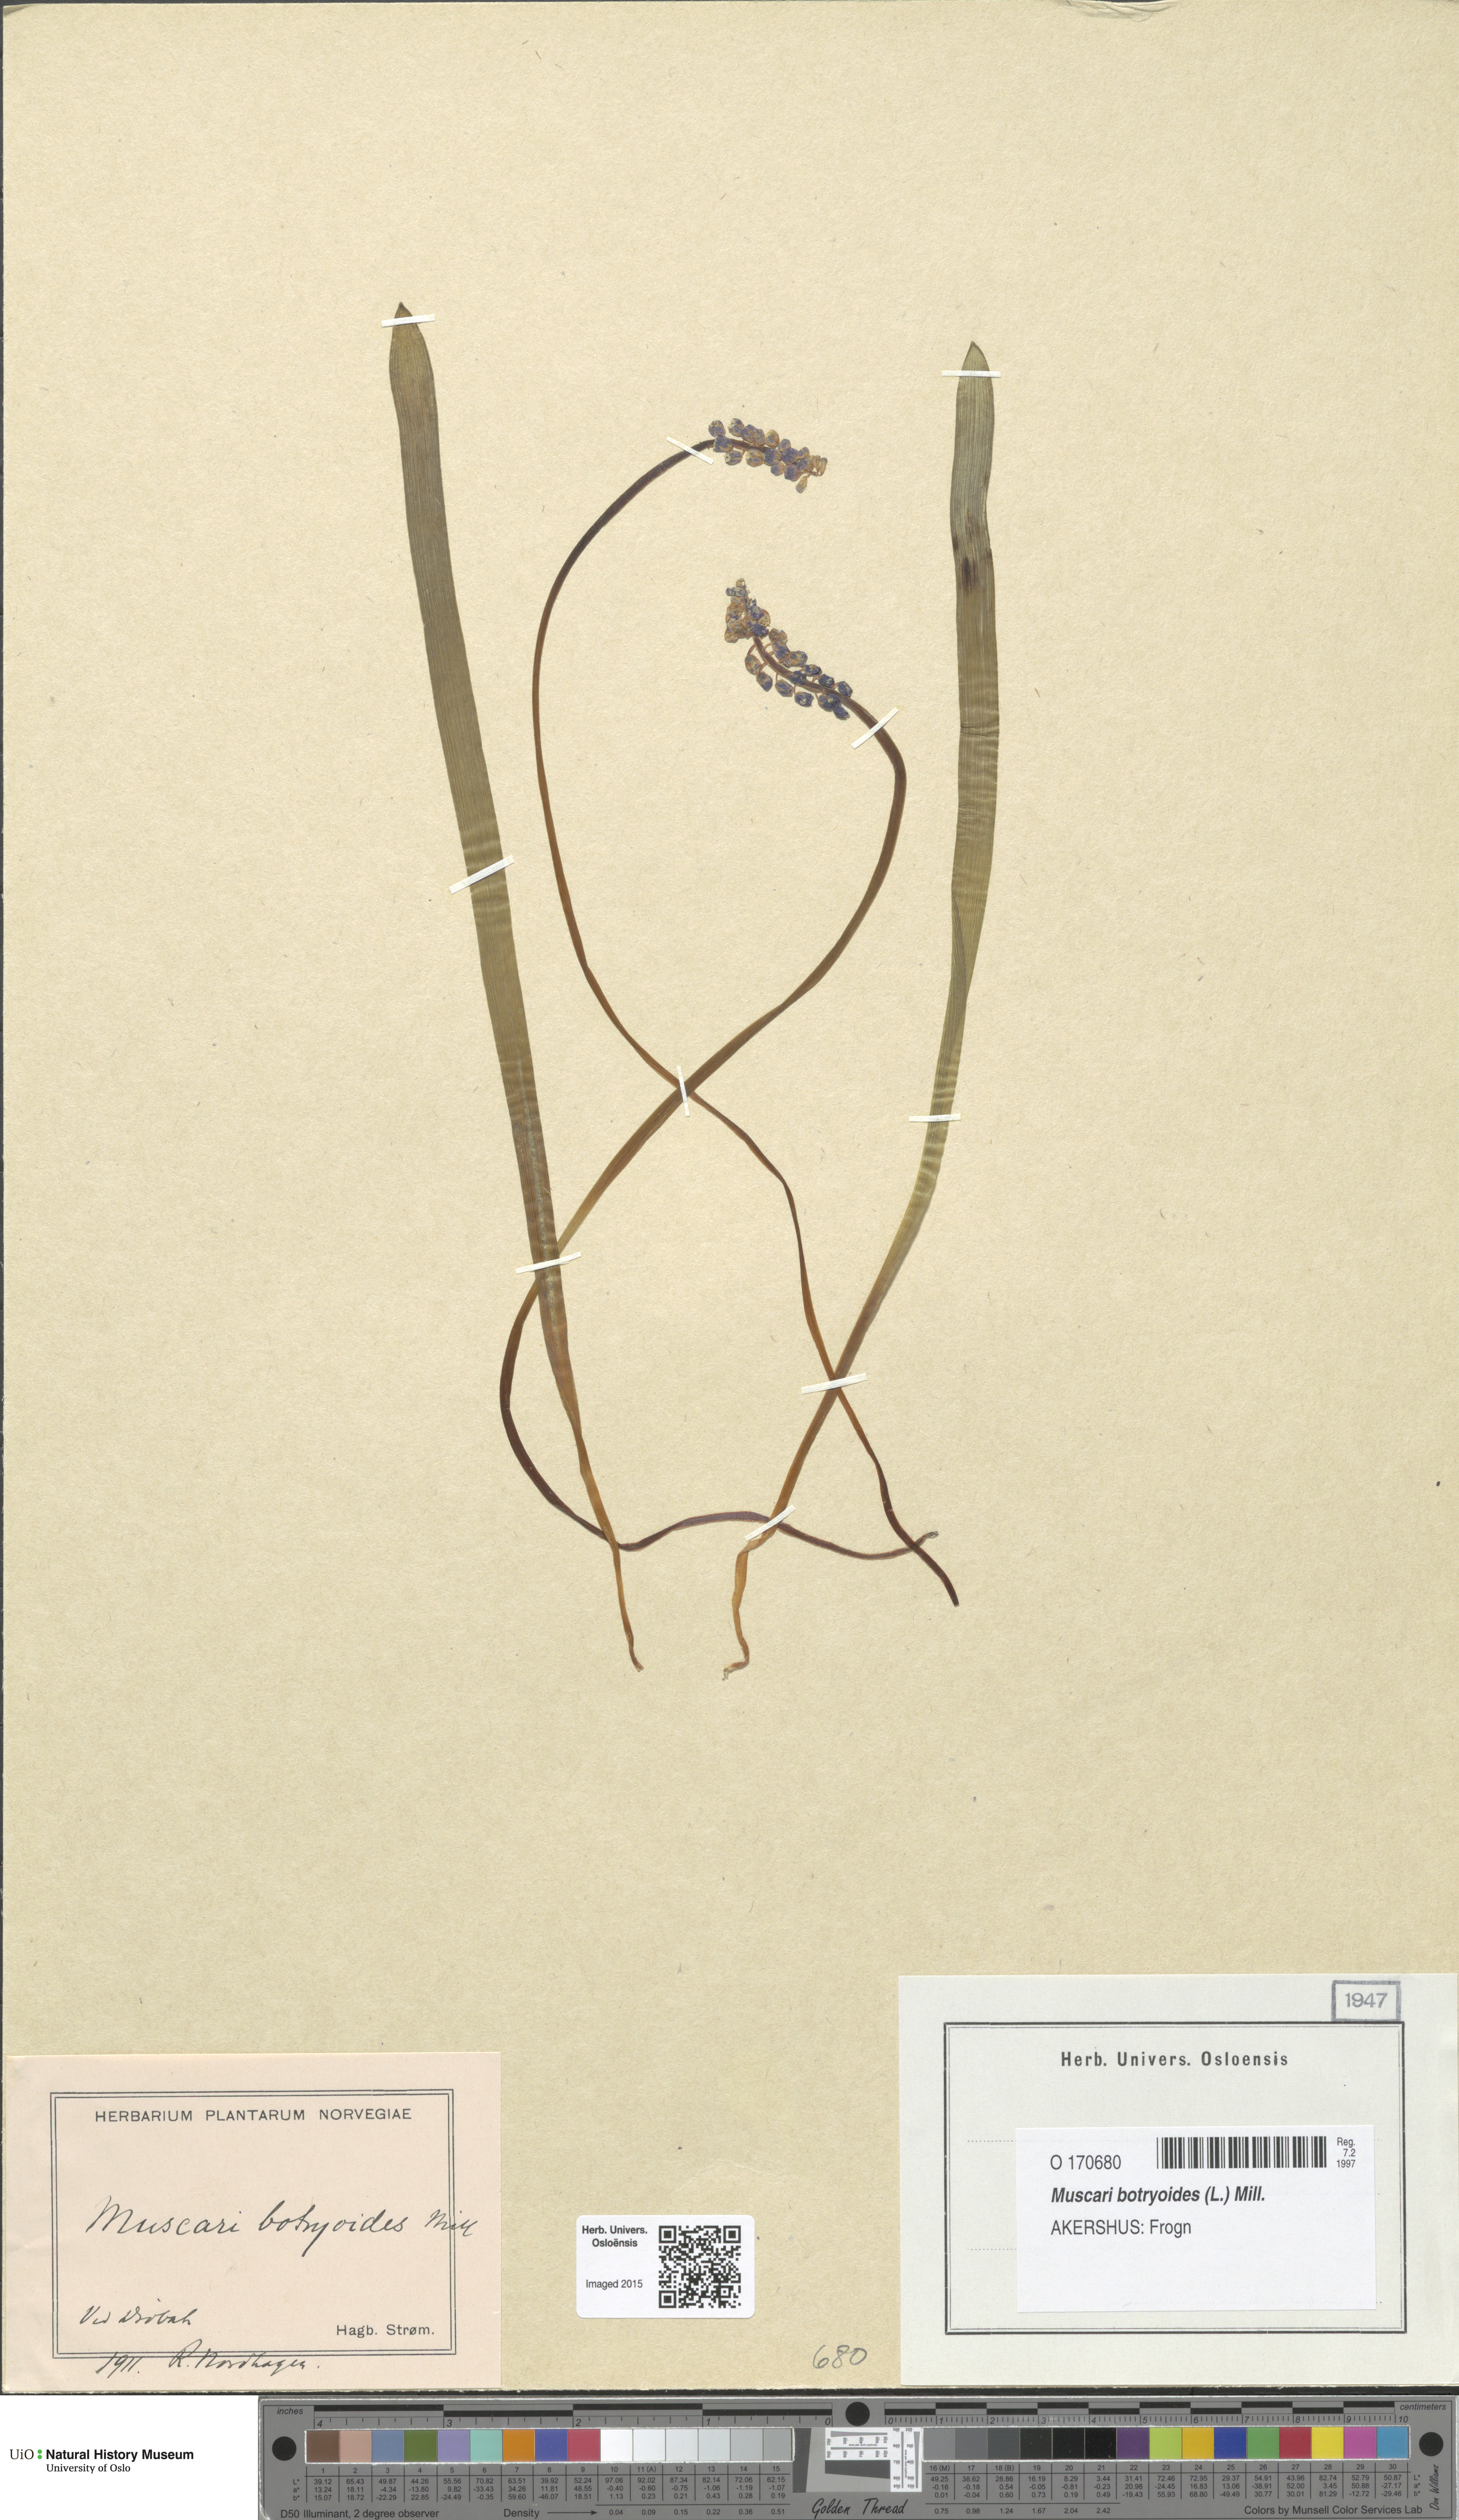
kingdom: Plantae
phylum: Tracheophyta
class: Liliopsida
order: Asparagales
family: Asparagaceae
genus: Muscari
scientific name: Muscari botryoides
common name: Compact grape-hyacinth
